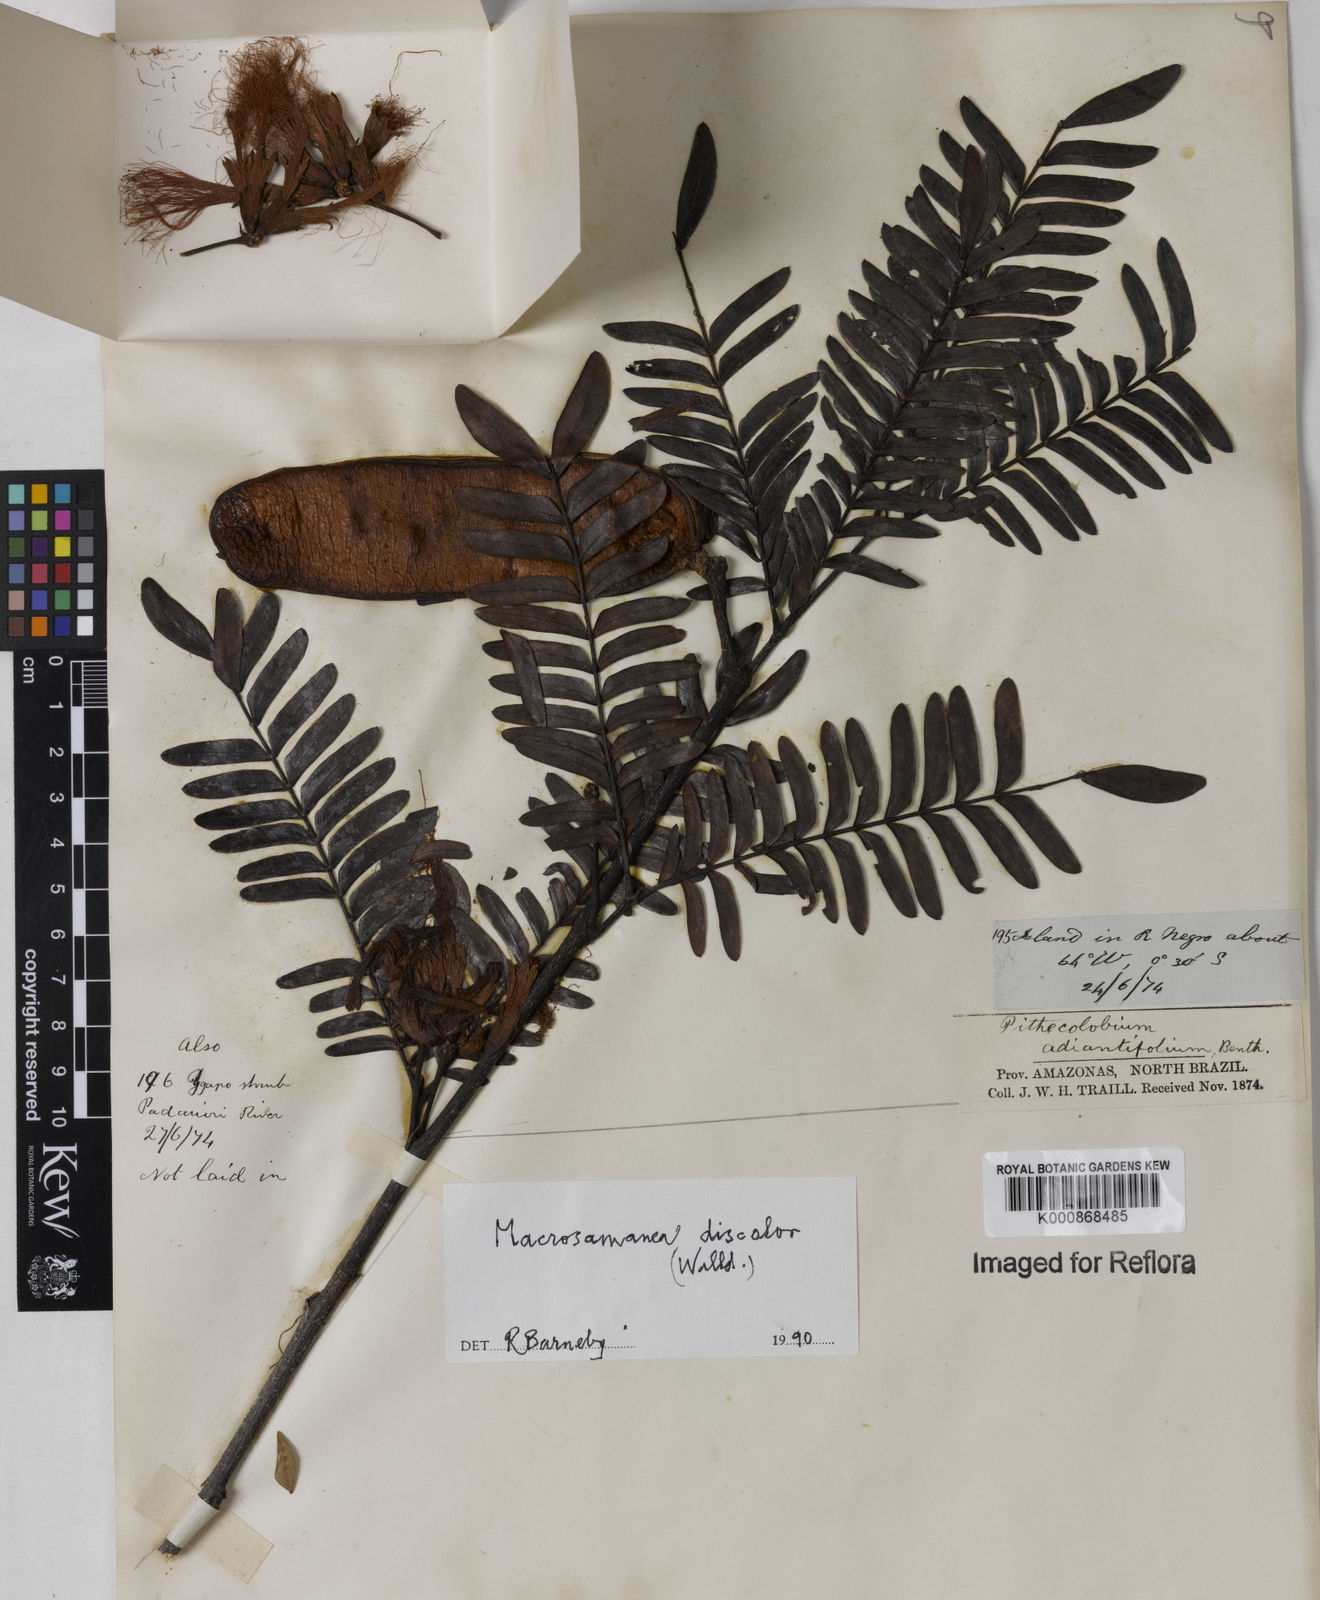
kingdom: Plantae
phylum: Tracheophyta
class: Magnoliopsida
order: Fabales
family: Fabaceae
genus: Macrosamanea
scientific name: Macrosamanea
